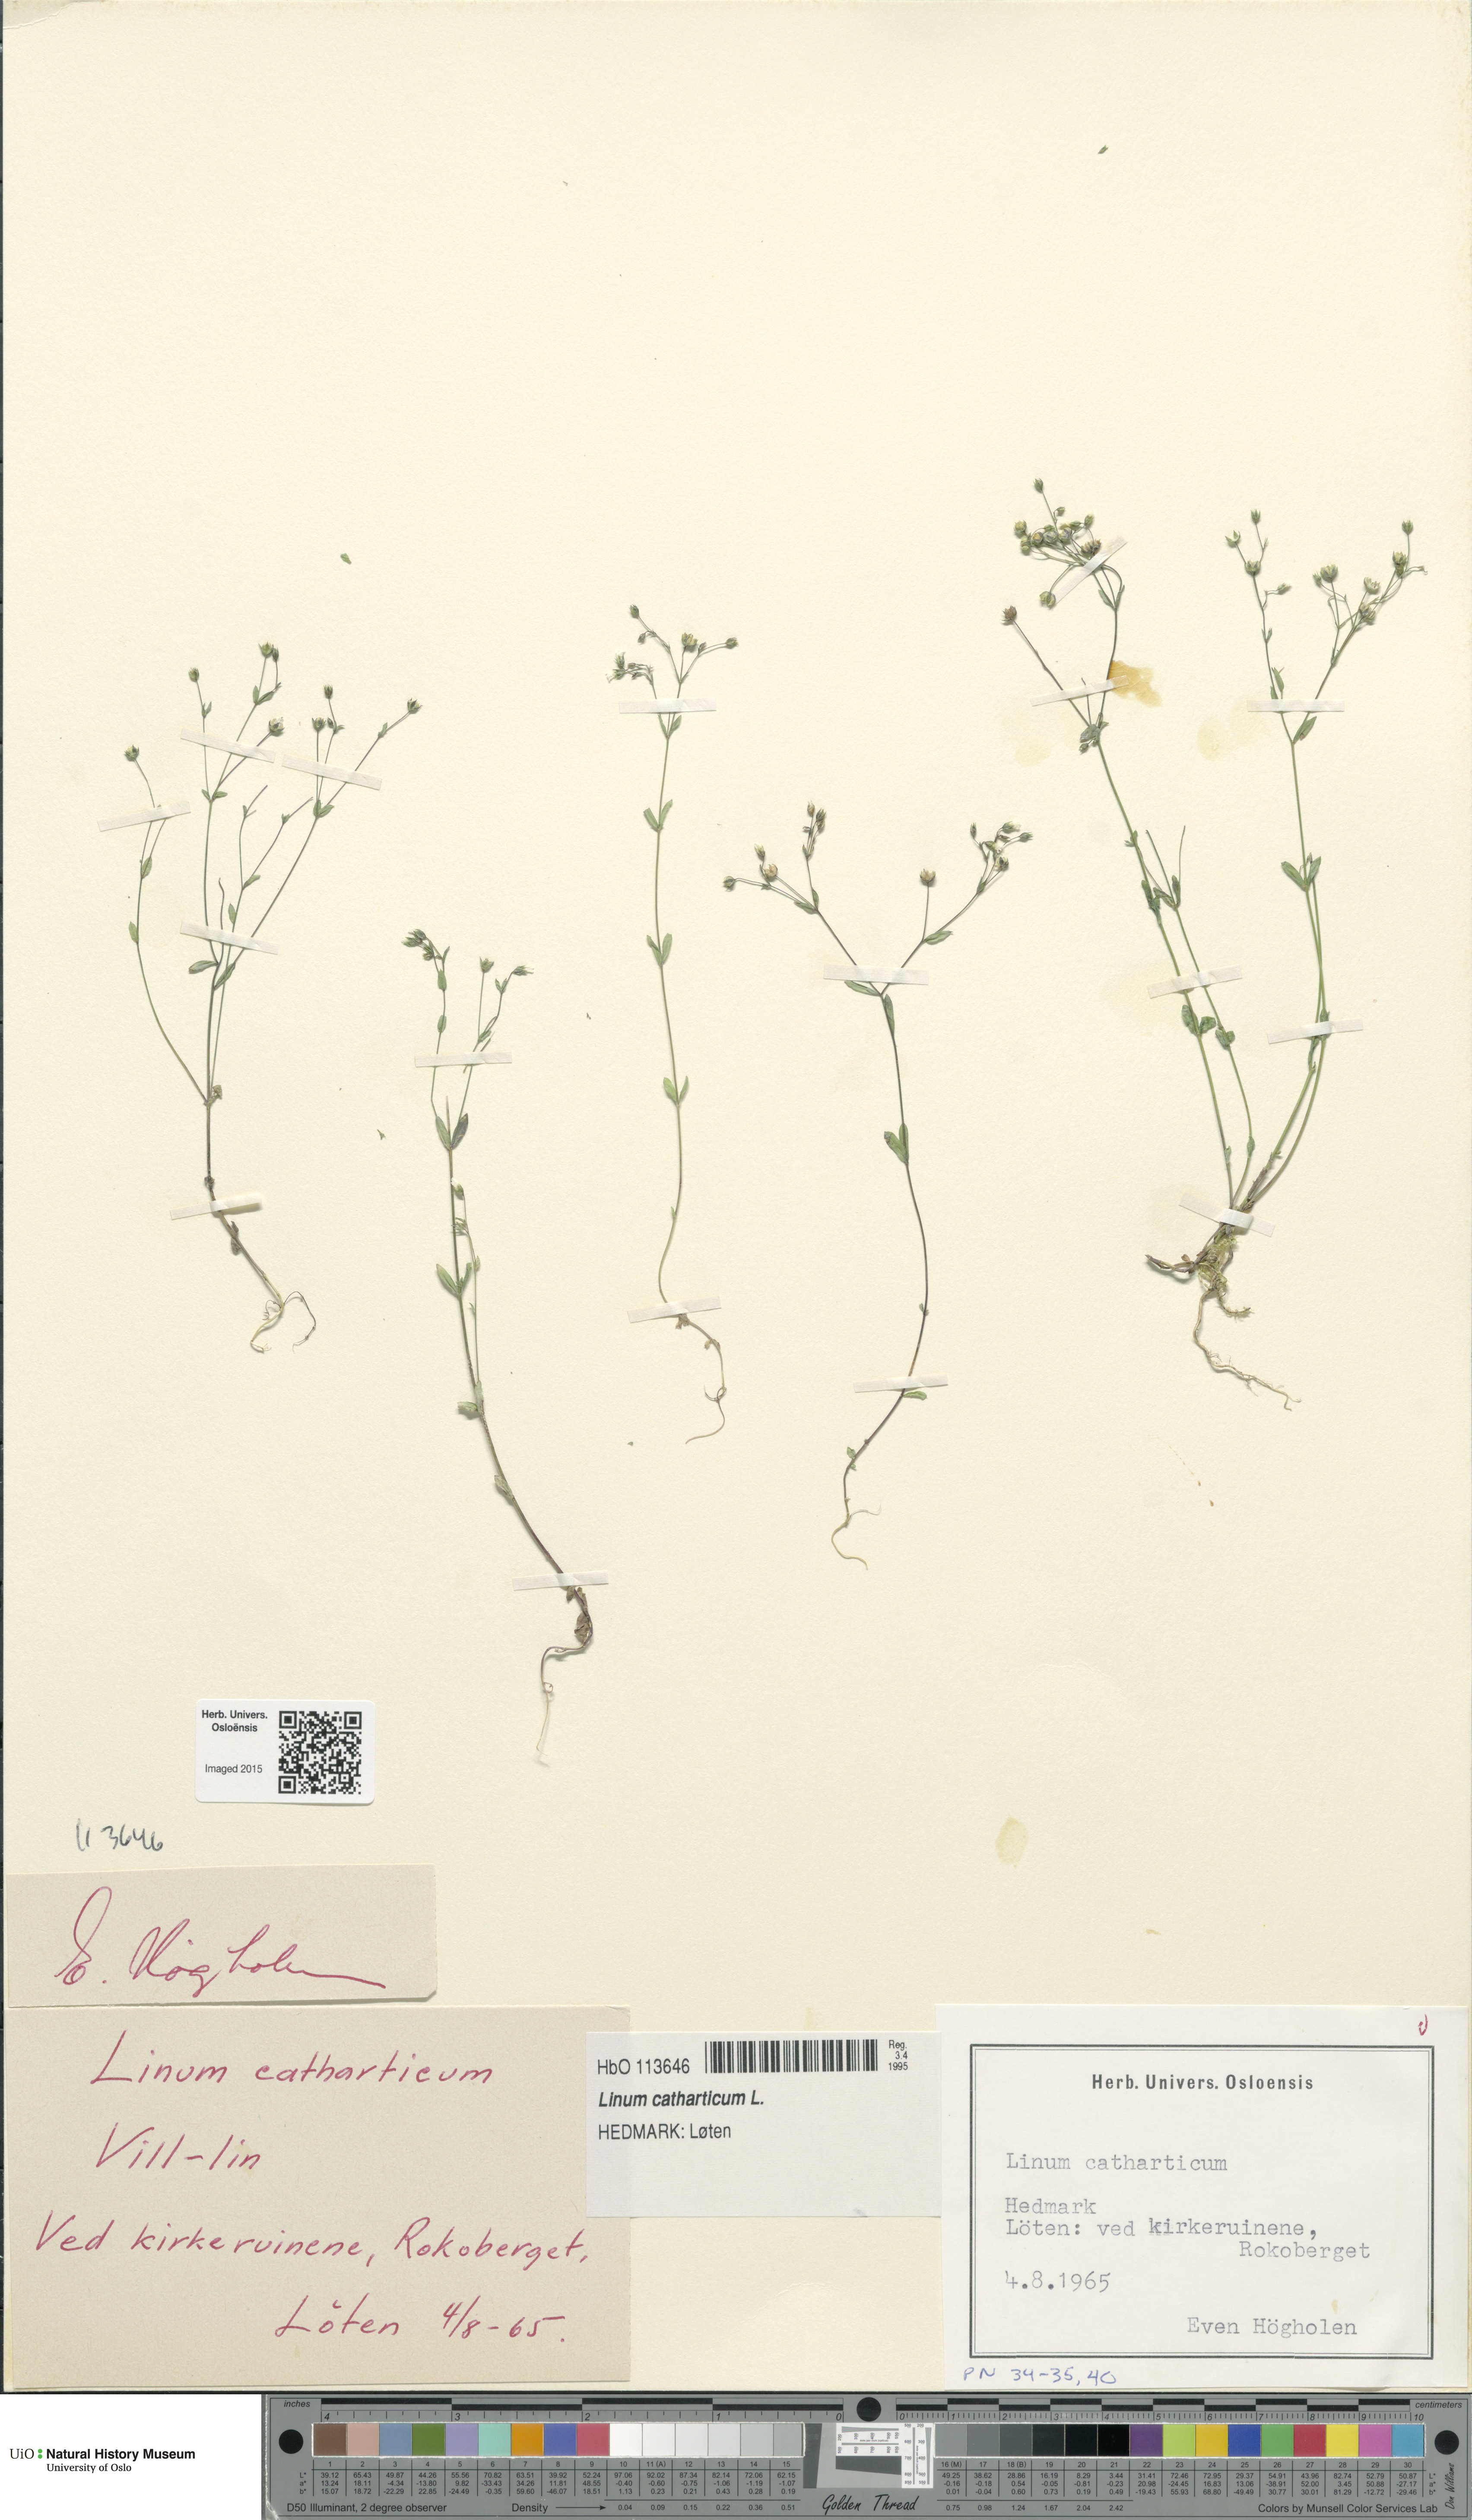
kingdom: Plantae
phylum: Tracheophyta
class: Magnoliopsida
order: Malpighiales
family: Linaceae
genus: Linum
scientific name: Linum catharticum
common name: Fairy flax
